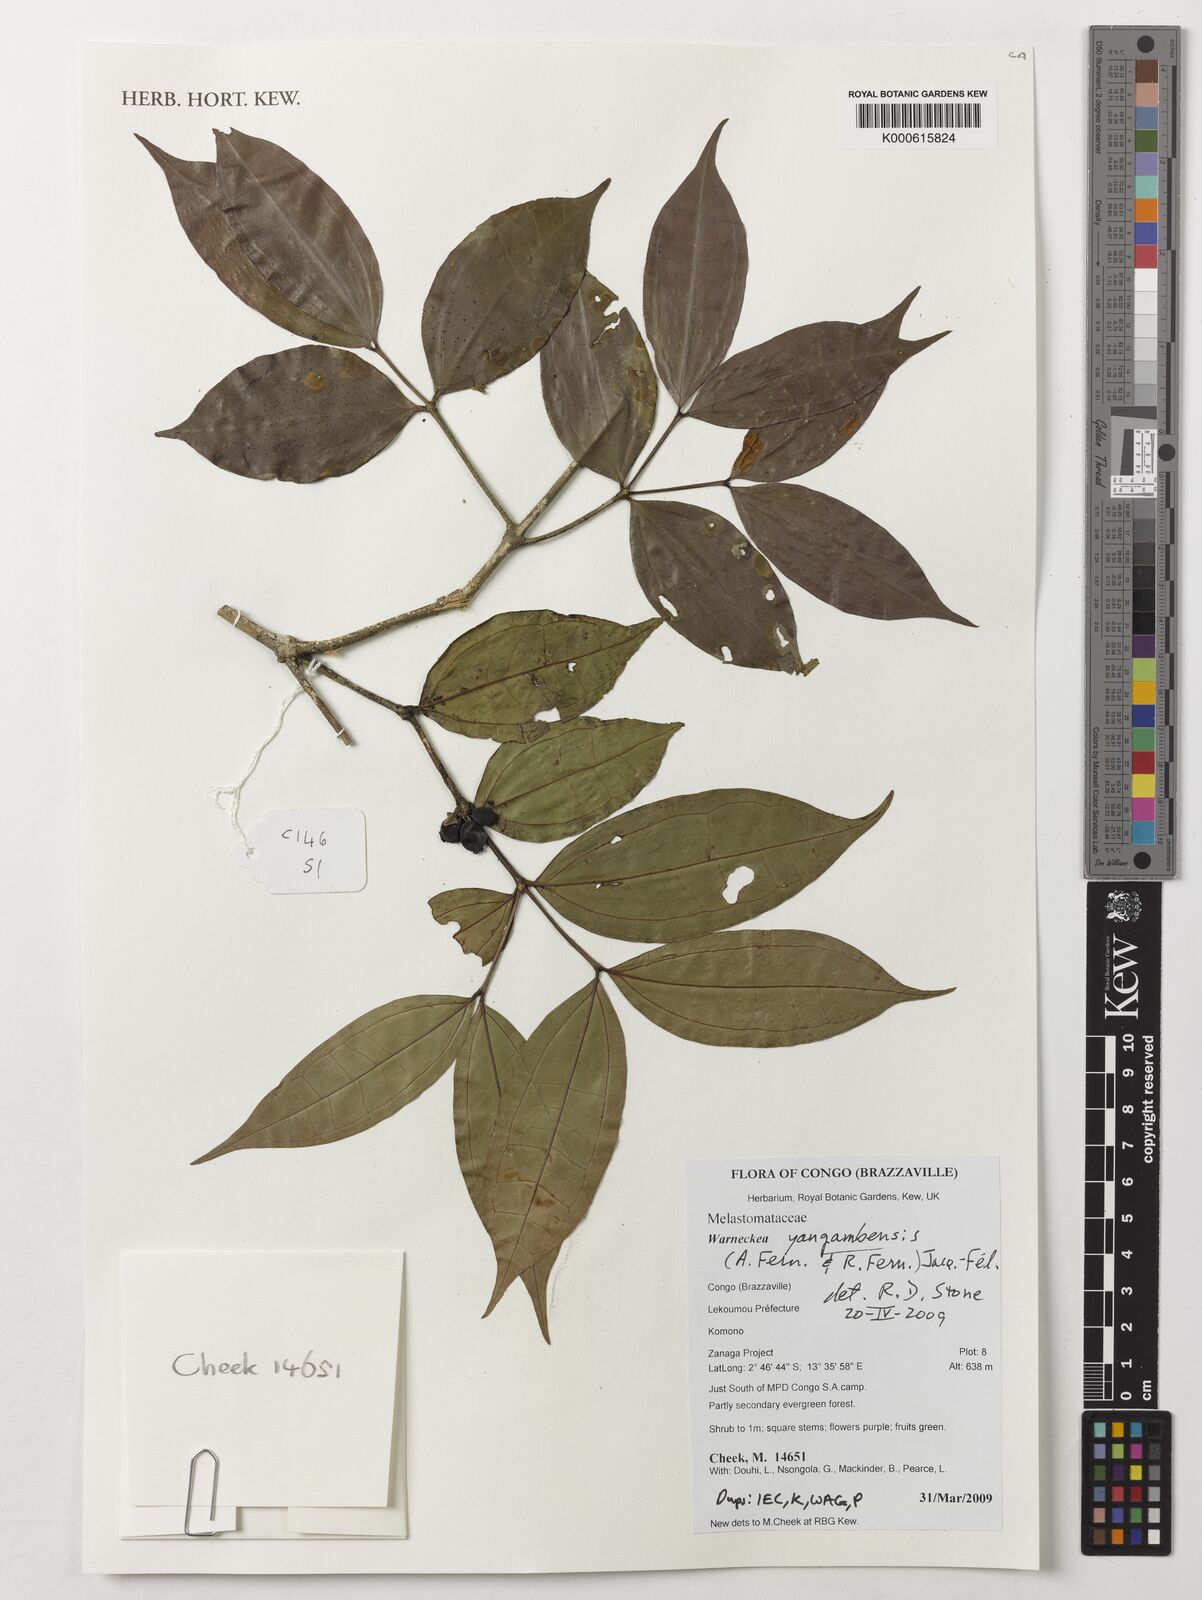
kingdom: Plantae
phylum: Tracheophyta
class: Magnoliopsida
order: Myrtales
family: Melastomataceae
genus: Warneckea
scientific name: Warneckea yangambensis
